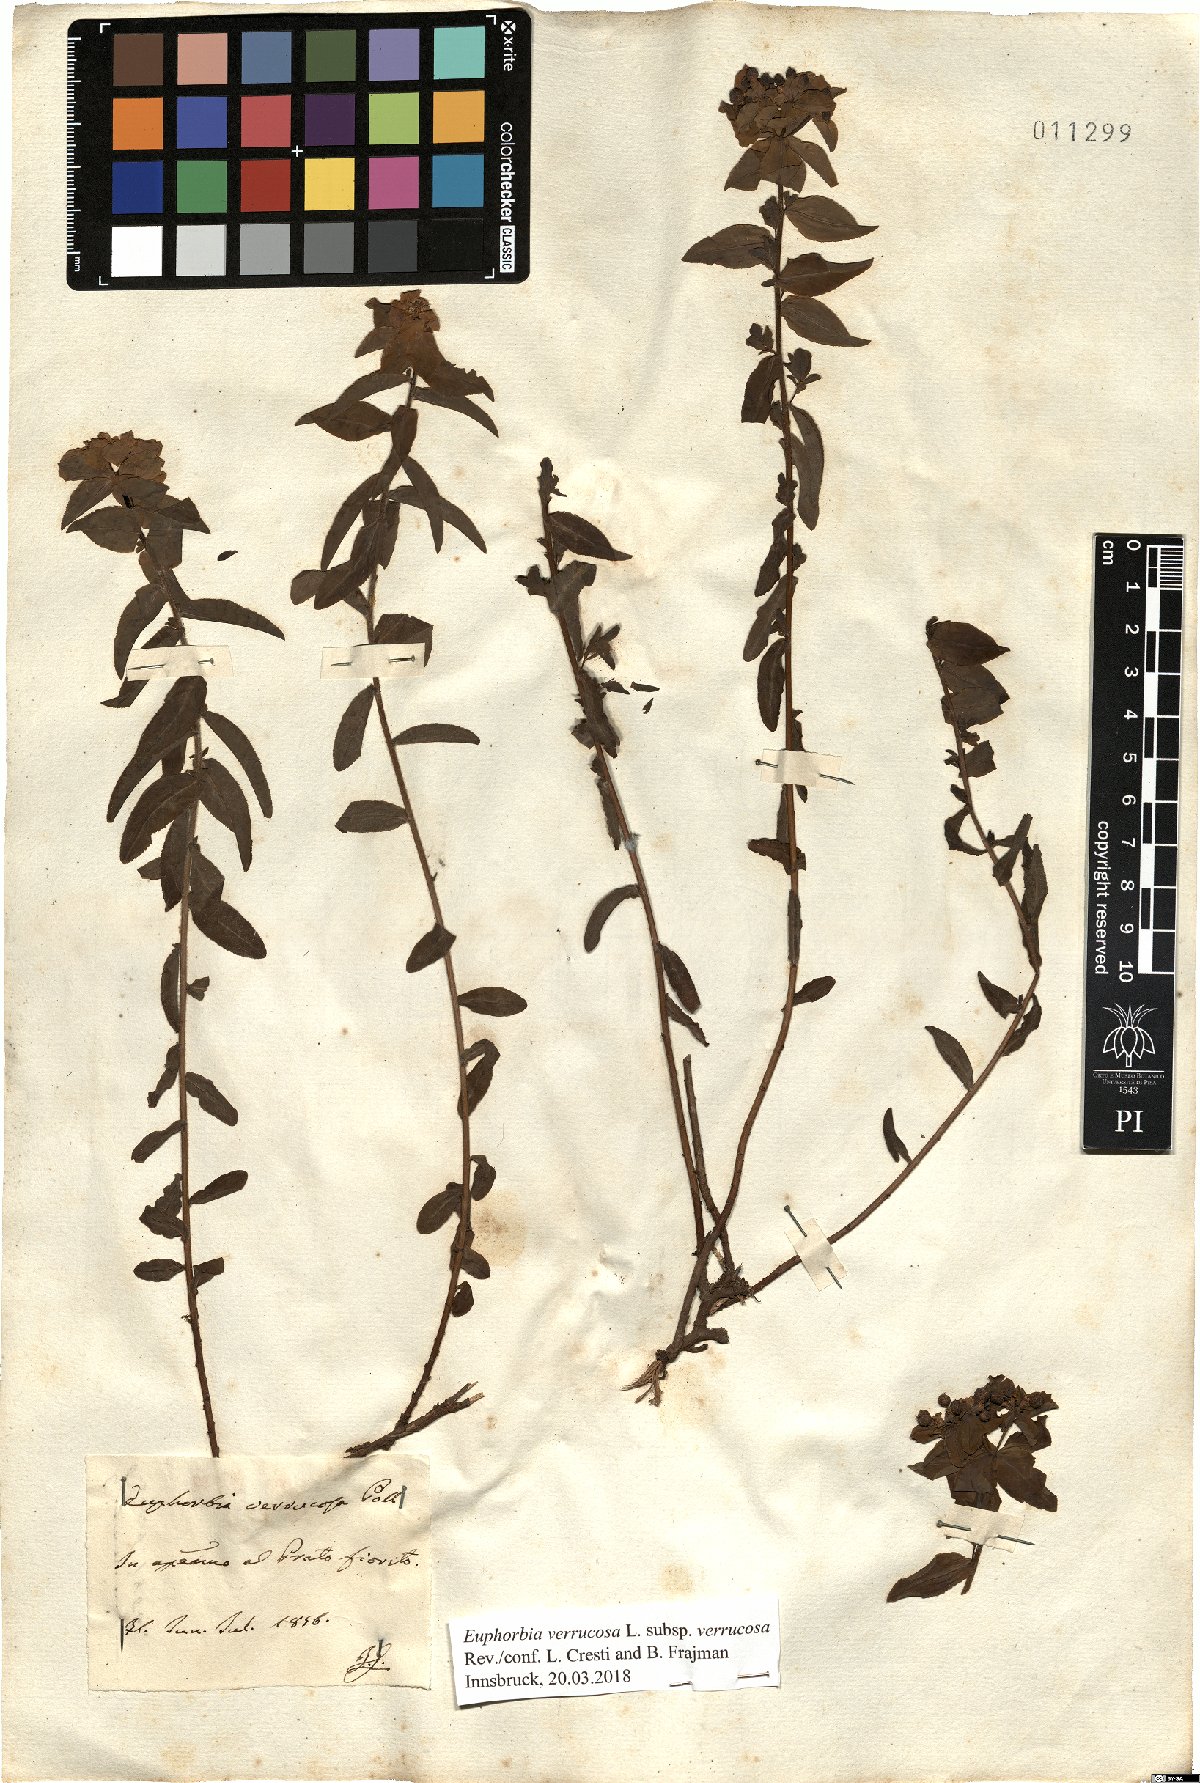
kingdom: Plantae
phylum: Tracheophyta
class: Magnoliopsida
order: Malpighiales
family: Euphorbiaceae
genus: Euphorbia
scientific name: Euphorbia verrucosa
